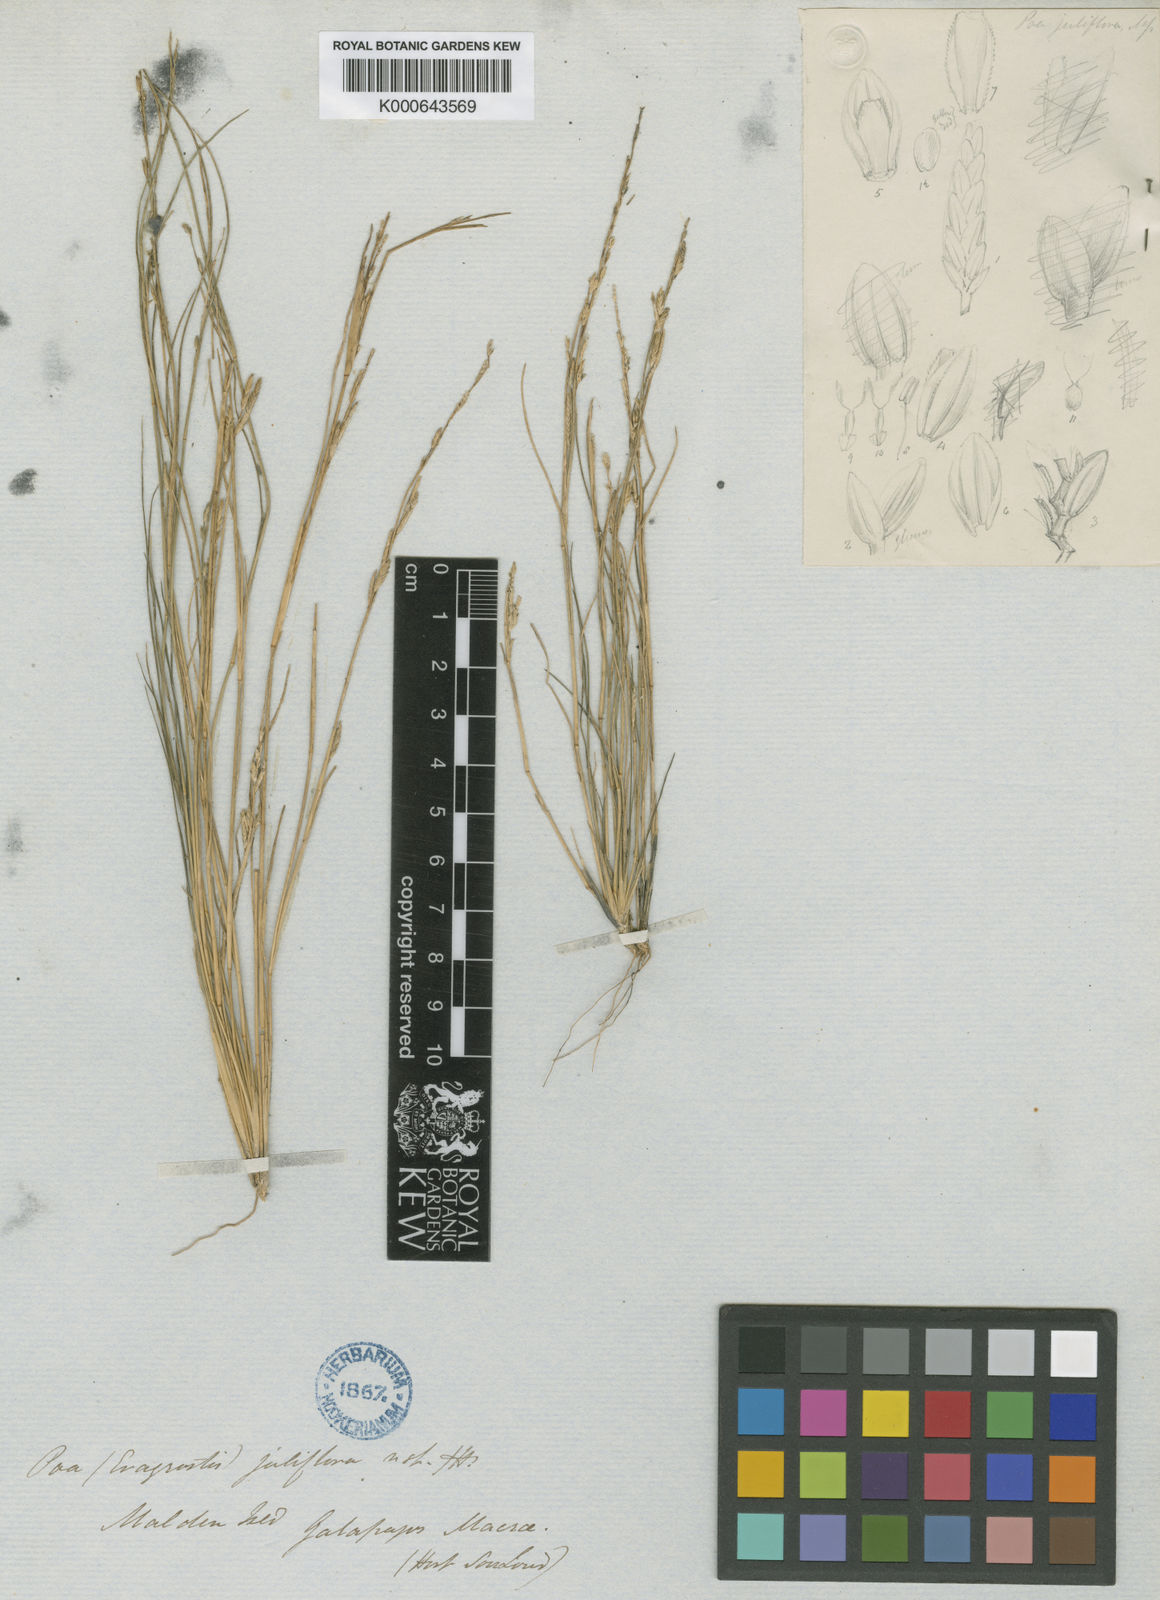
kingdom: Plantae
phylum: Tracheophyta
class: Liliopsida
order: Poales
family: Poaceae
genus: Eragrostis
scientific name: Eragrostis brownii
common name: Lovegrass
